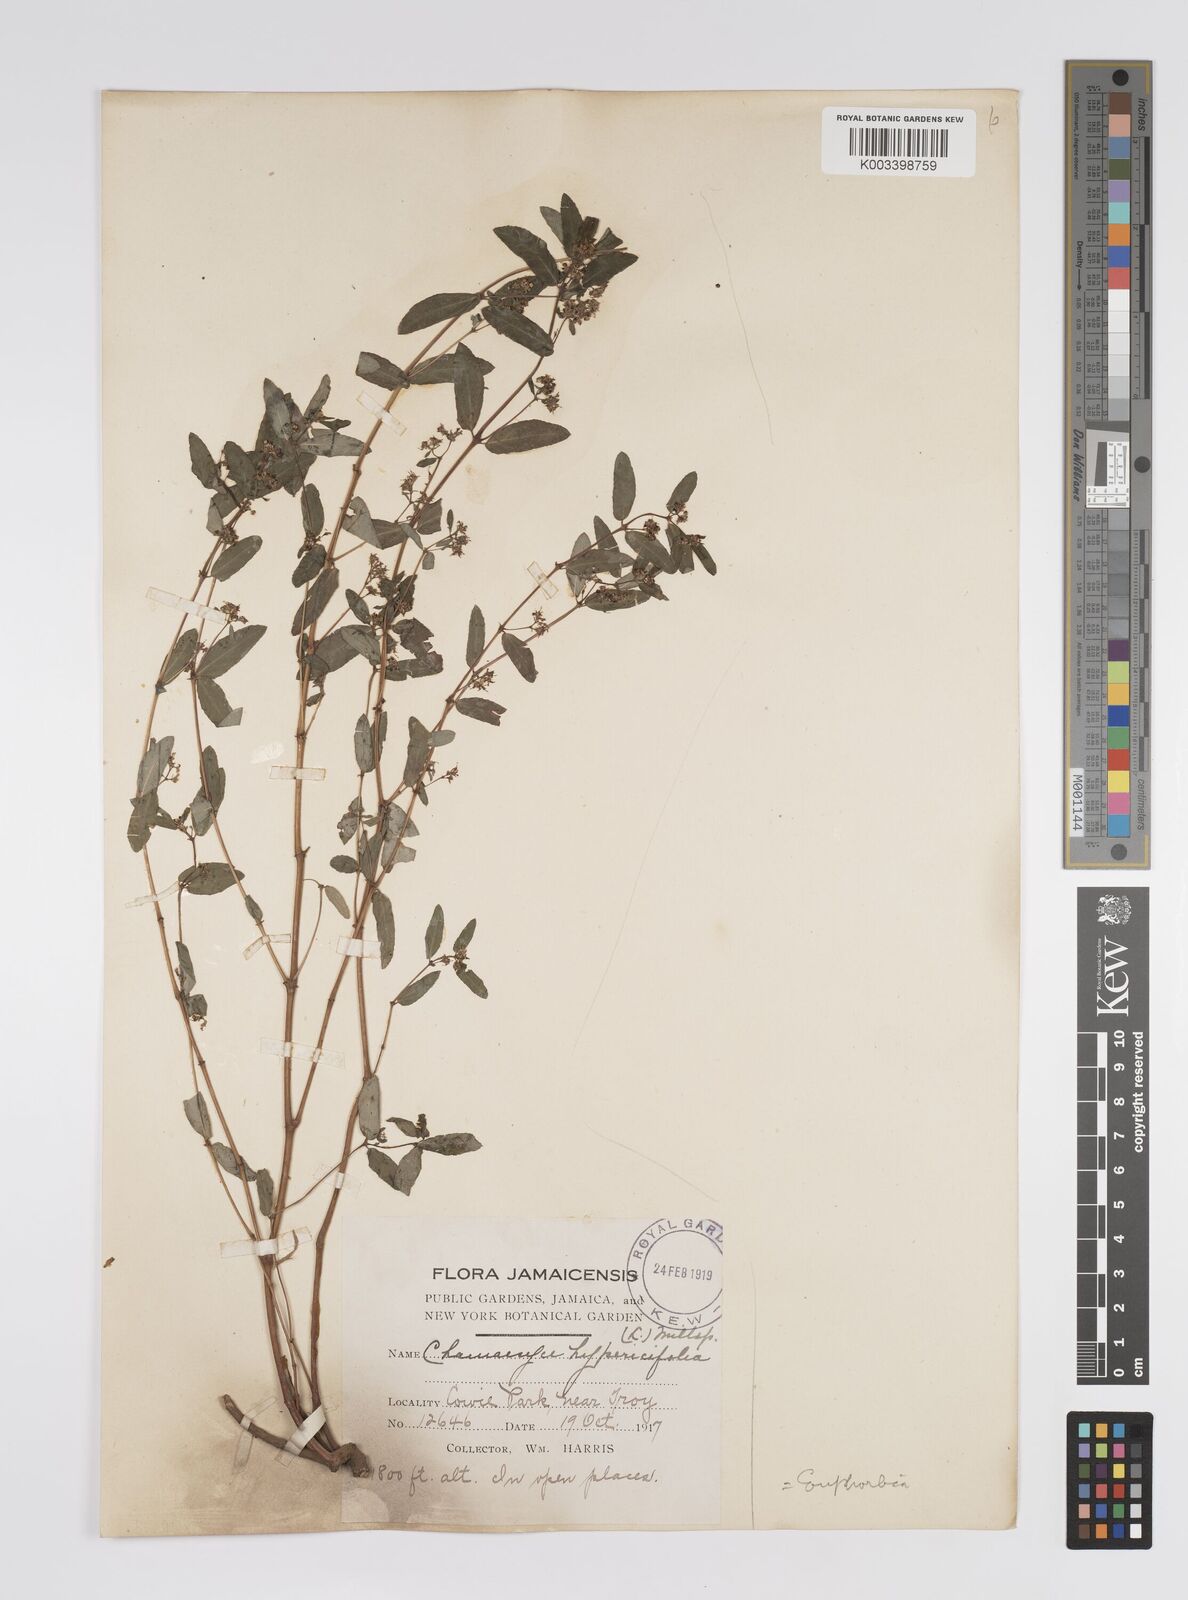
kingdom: Plantae
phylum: Tracheophyta
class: Magnoliopsida
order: Malpighiales
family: Euphorbiaceae
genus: Euphorbia
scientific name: Euphorbia
